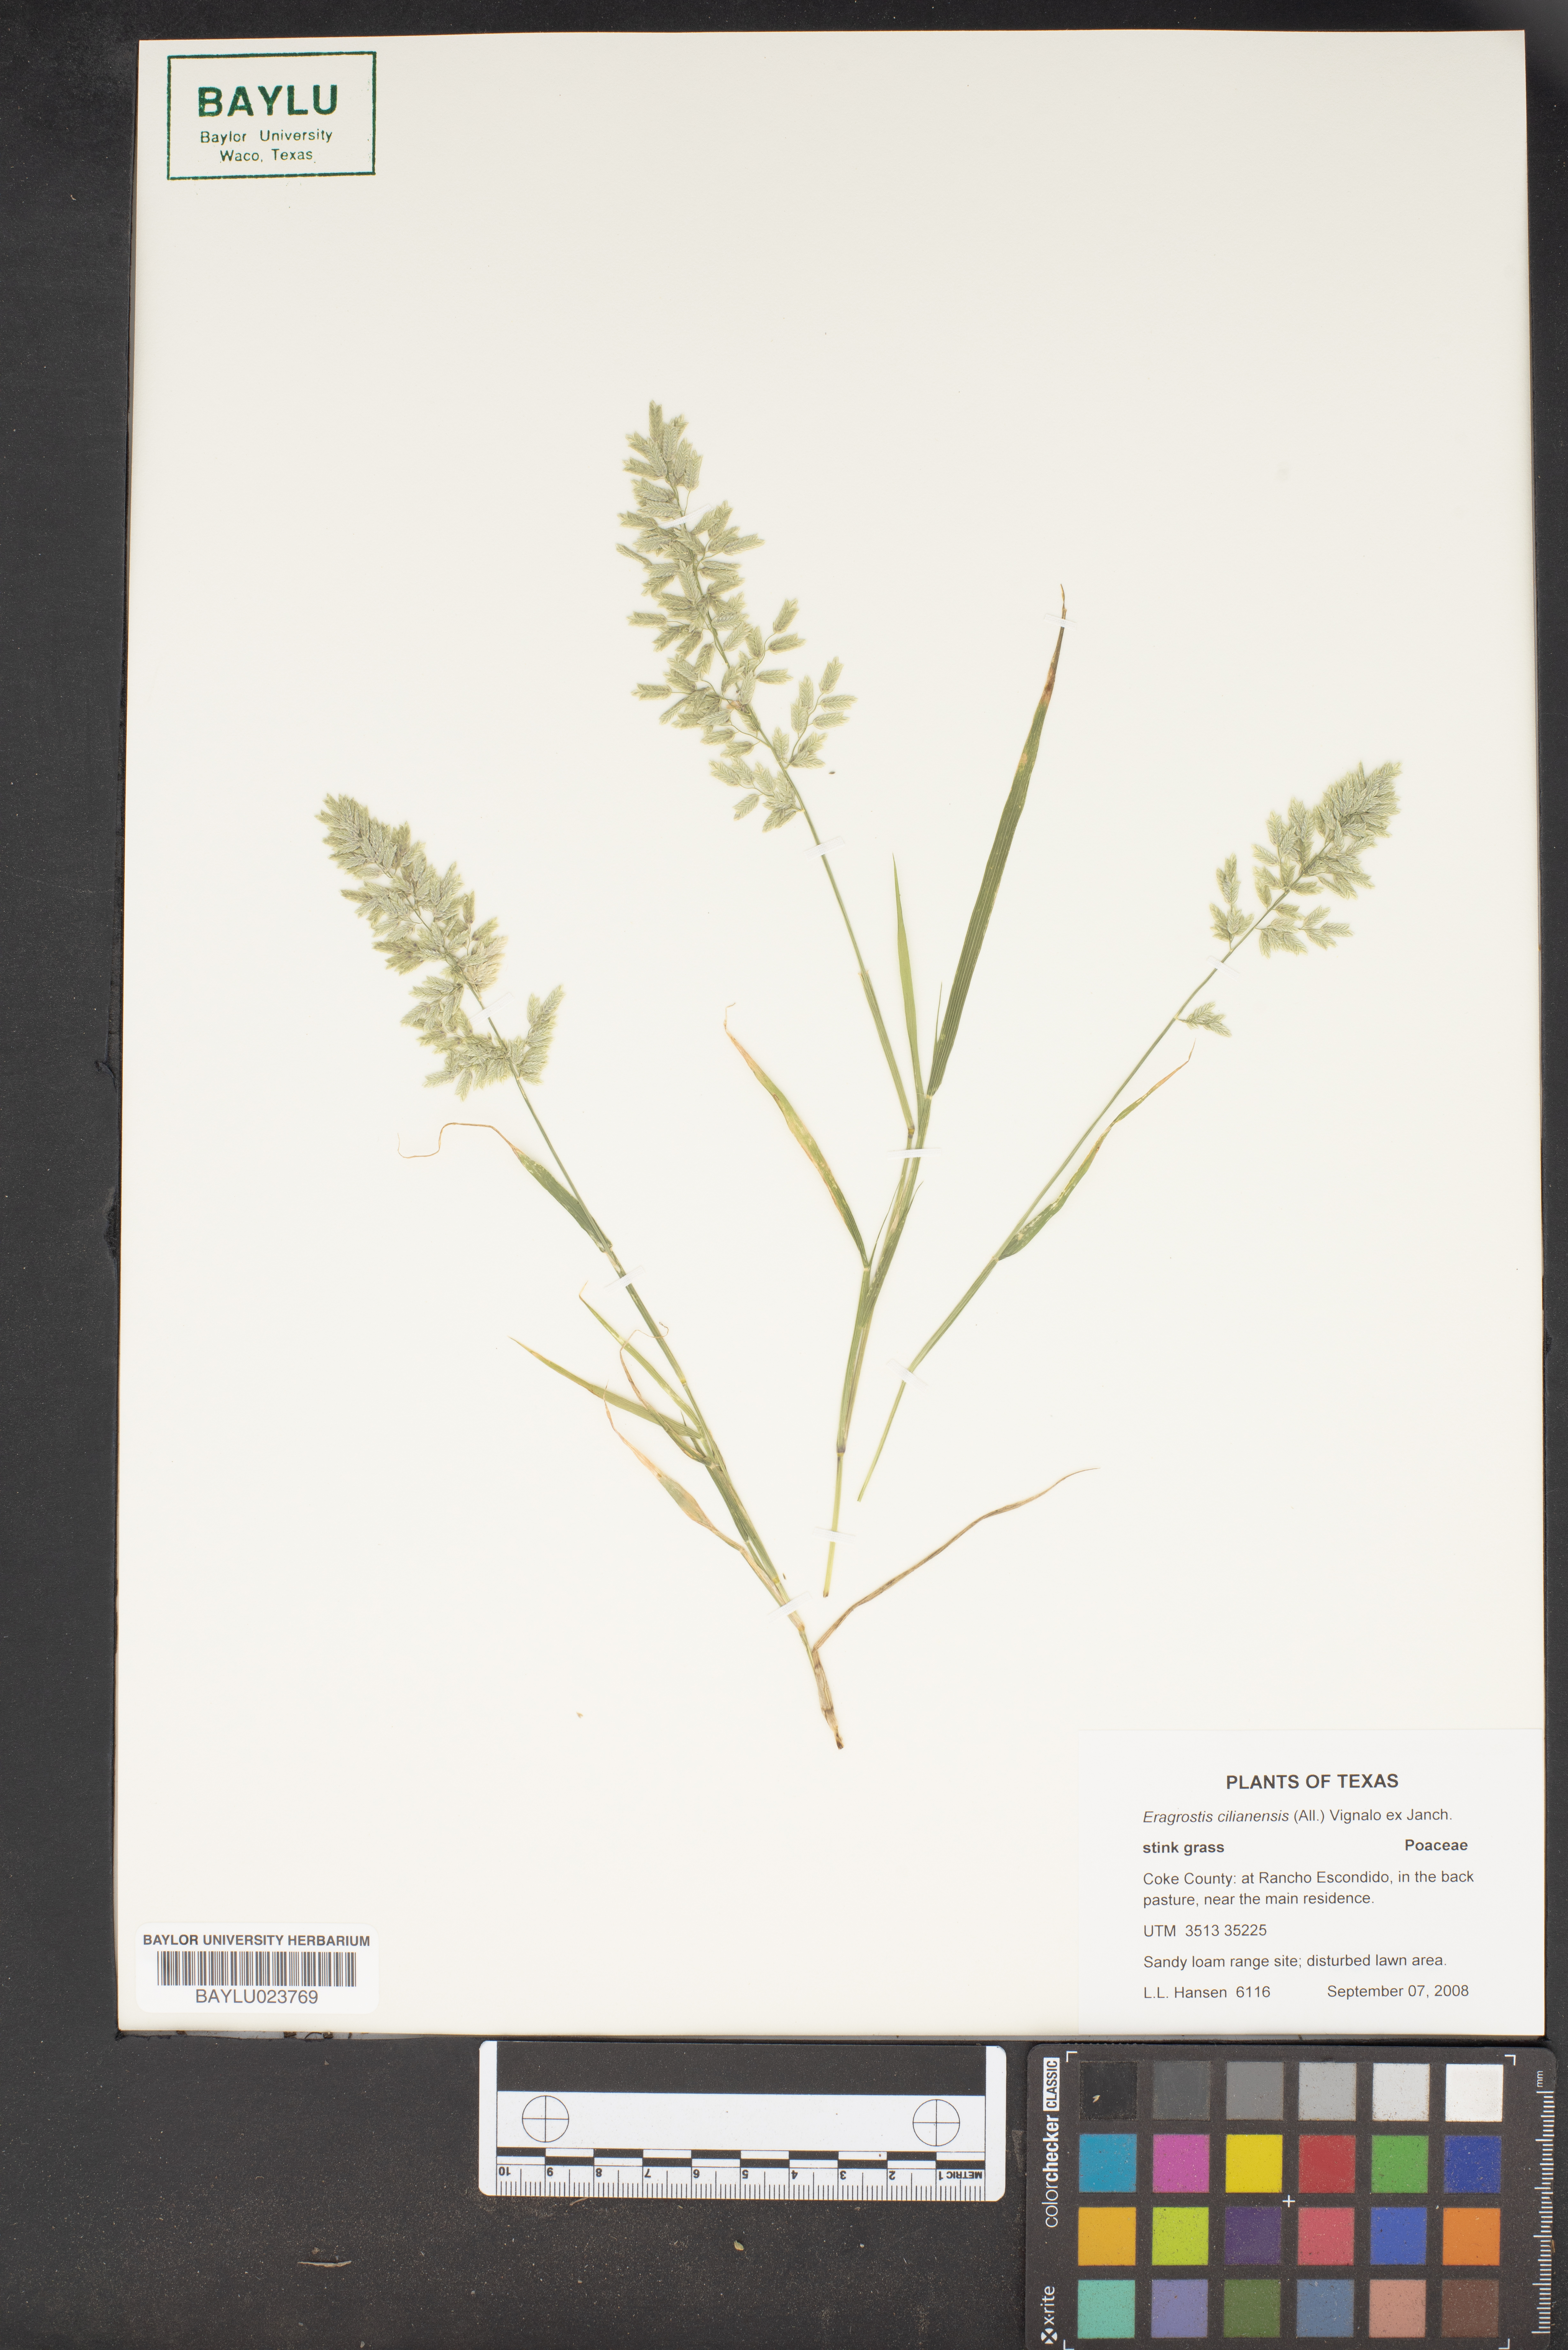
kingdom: Plantae
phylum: Tracheophyta
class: Liliopsida
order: Poales
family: Poaceae
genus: Eragrostis
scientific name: Eragrostis cilianensis
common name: Stinkgrass
